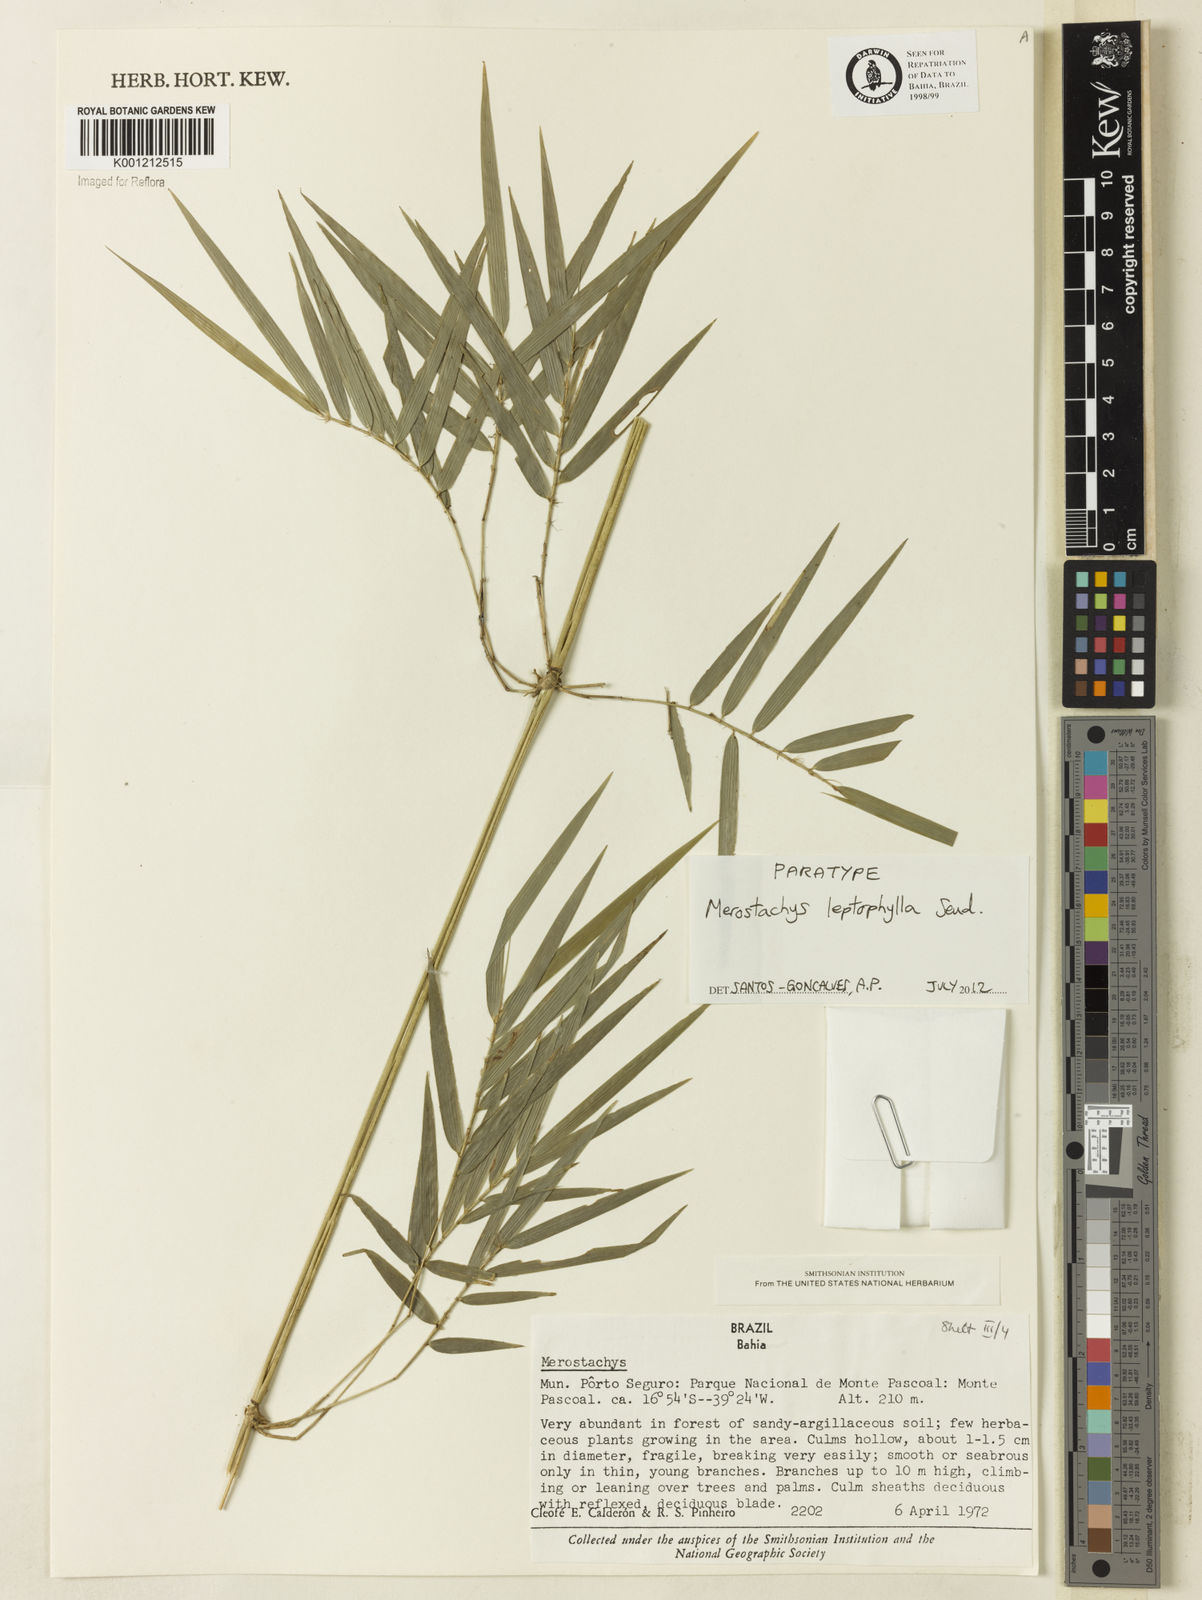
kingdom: Plantae
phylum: Tracheophyta
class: Liliopsida
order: Poales
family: Poaceae
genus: Merostachys
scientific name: Merostachys leptophylla
